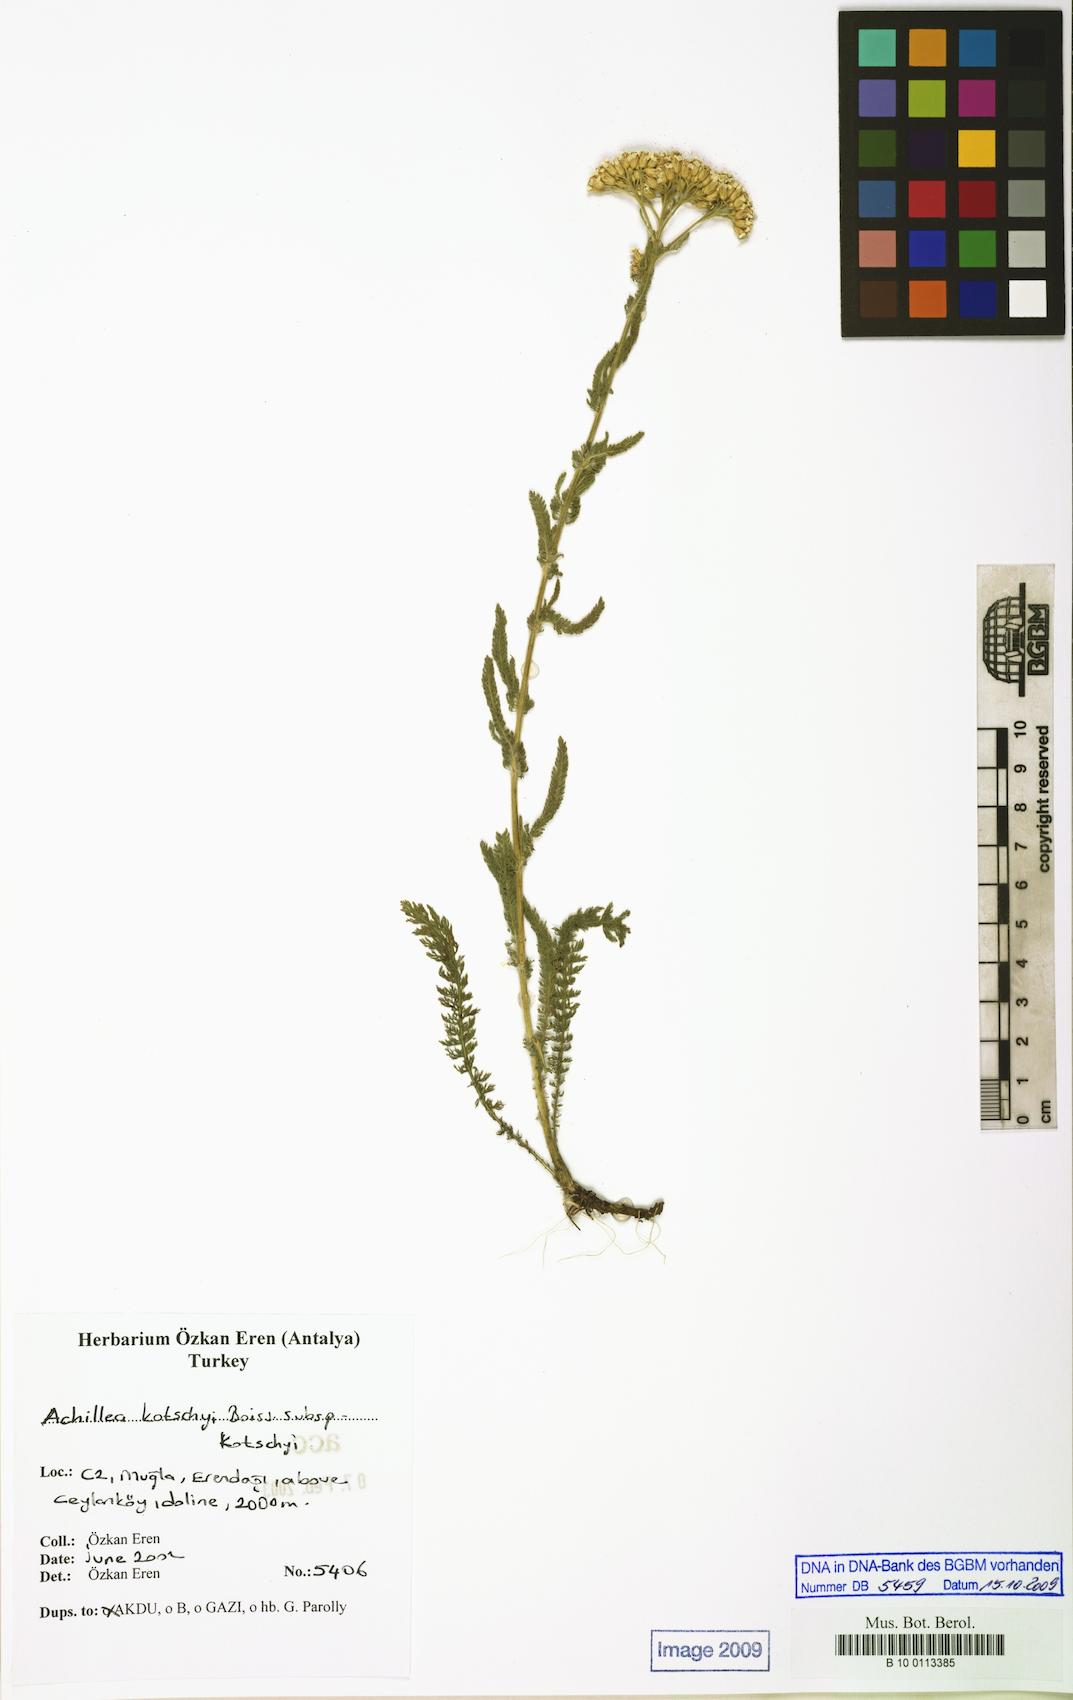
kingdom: Plantae
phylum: Tracheophyta
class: Magnoliopsida
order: Asterales
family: Asteraceae
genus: Achillea
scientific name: Achillea kotschyi
